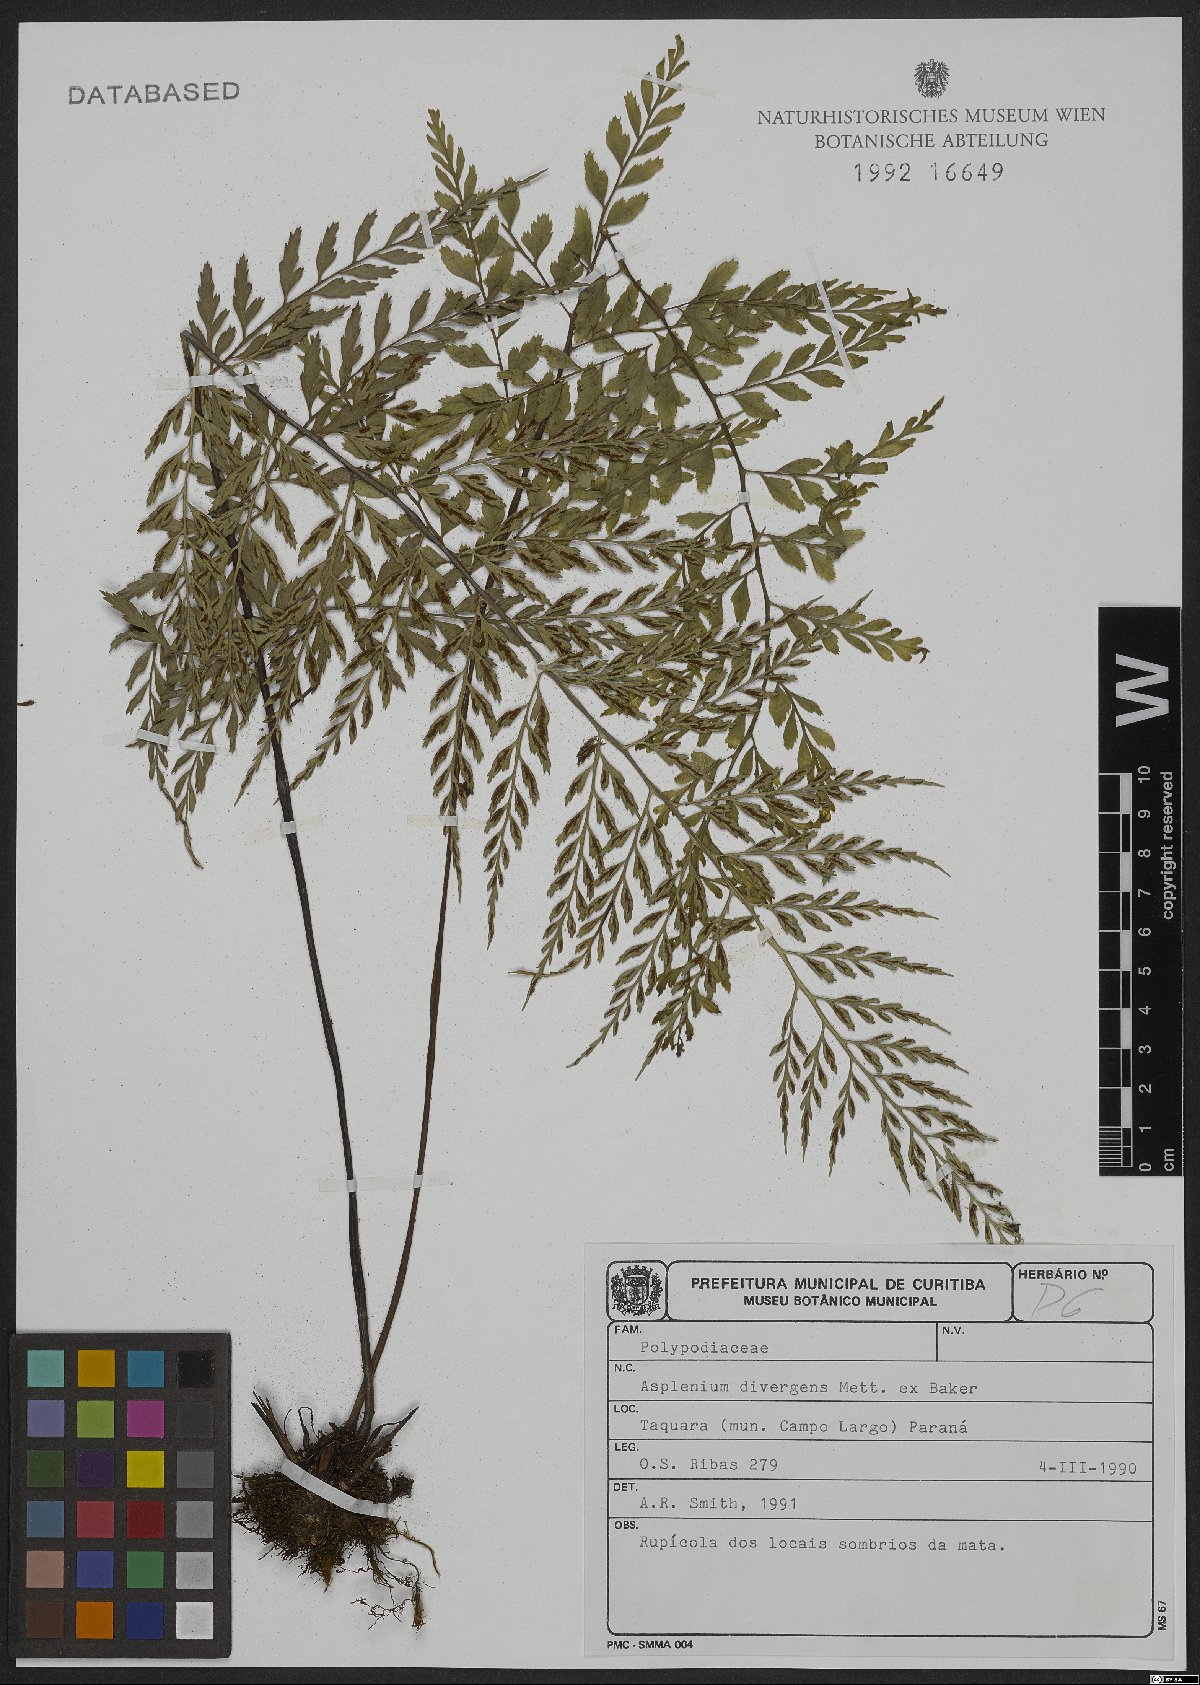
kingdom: Plantae
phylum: Tracheophyta
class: Polypodiopsida
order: Polypodiales
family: Aspleniaceae
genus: Asplenium
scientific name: Asplenium gastonis
